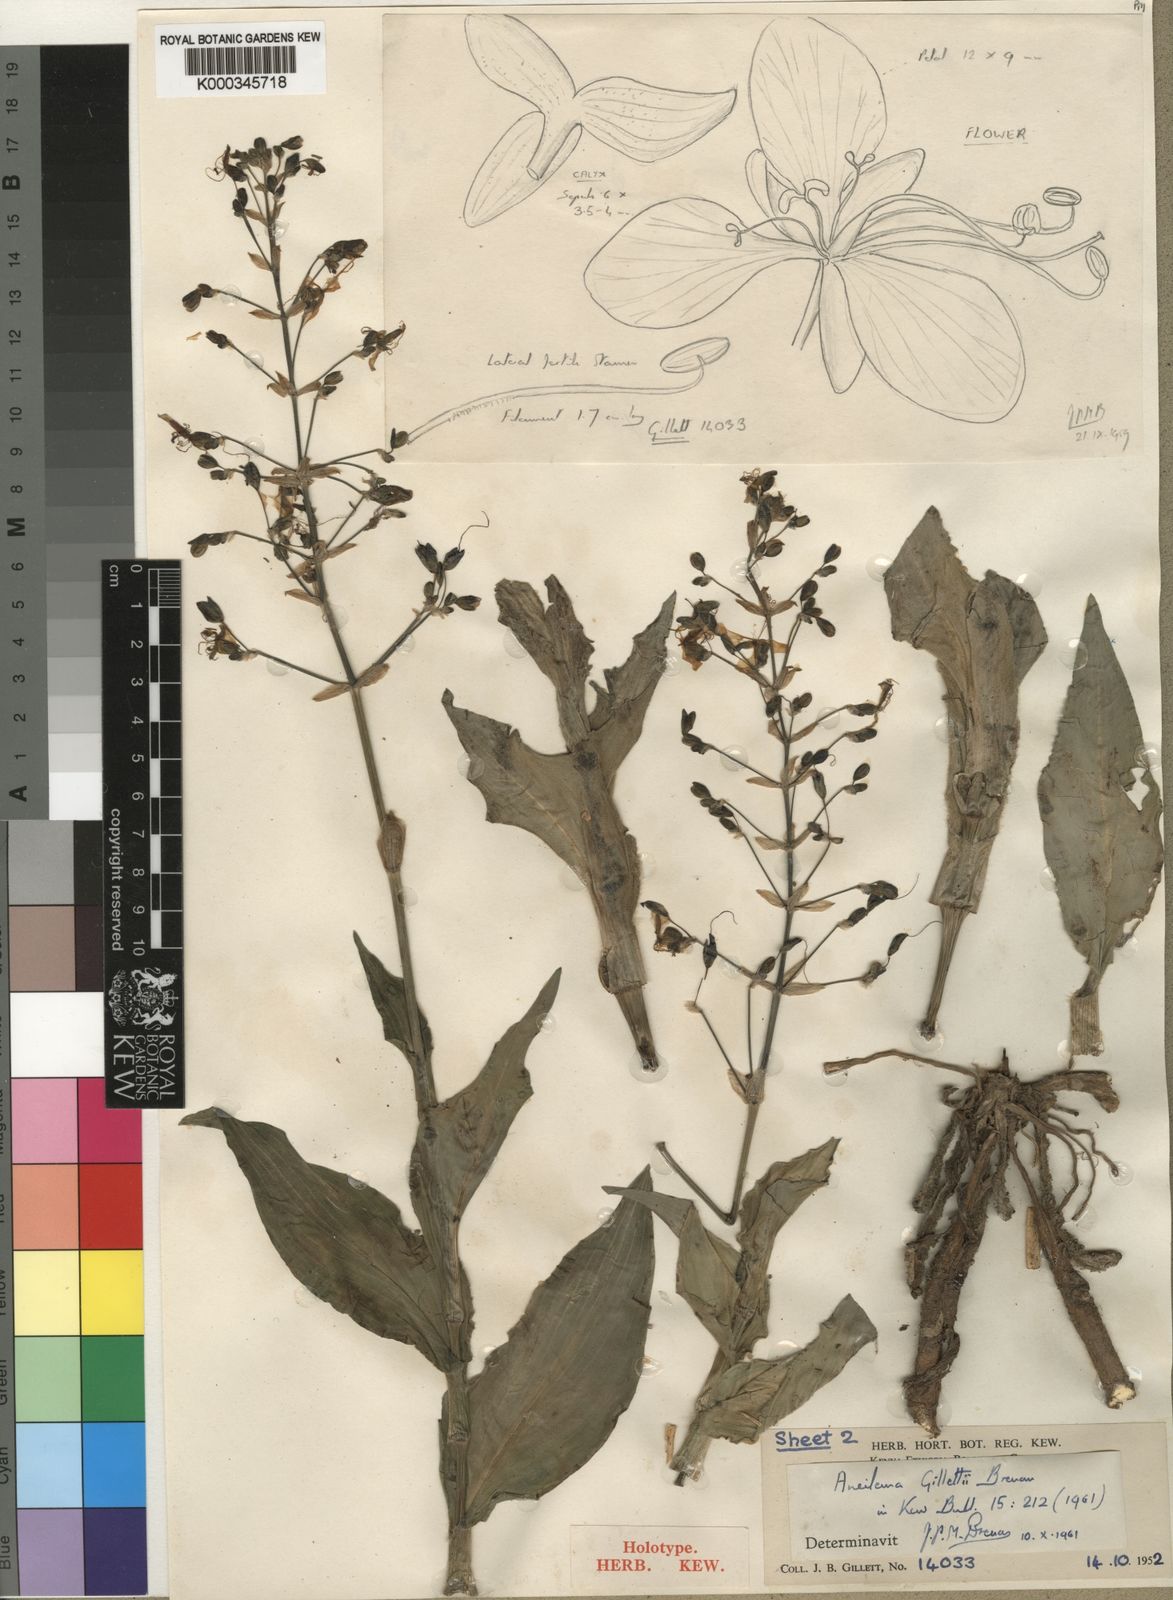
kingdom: Plantae
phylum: Tracheophyta
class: Liliopsida
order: Commelinales
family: Commelinaceae
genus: Aneilema
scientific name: Aneilema gillettii
